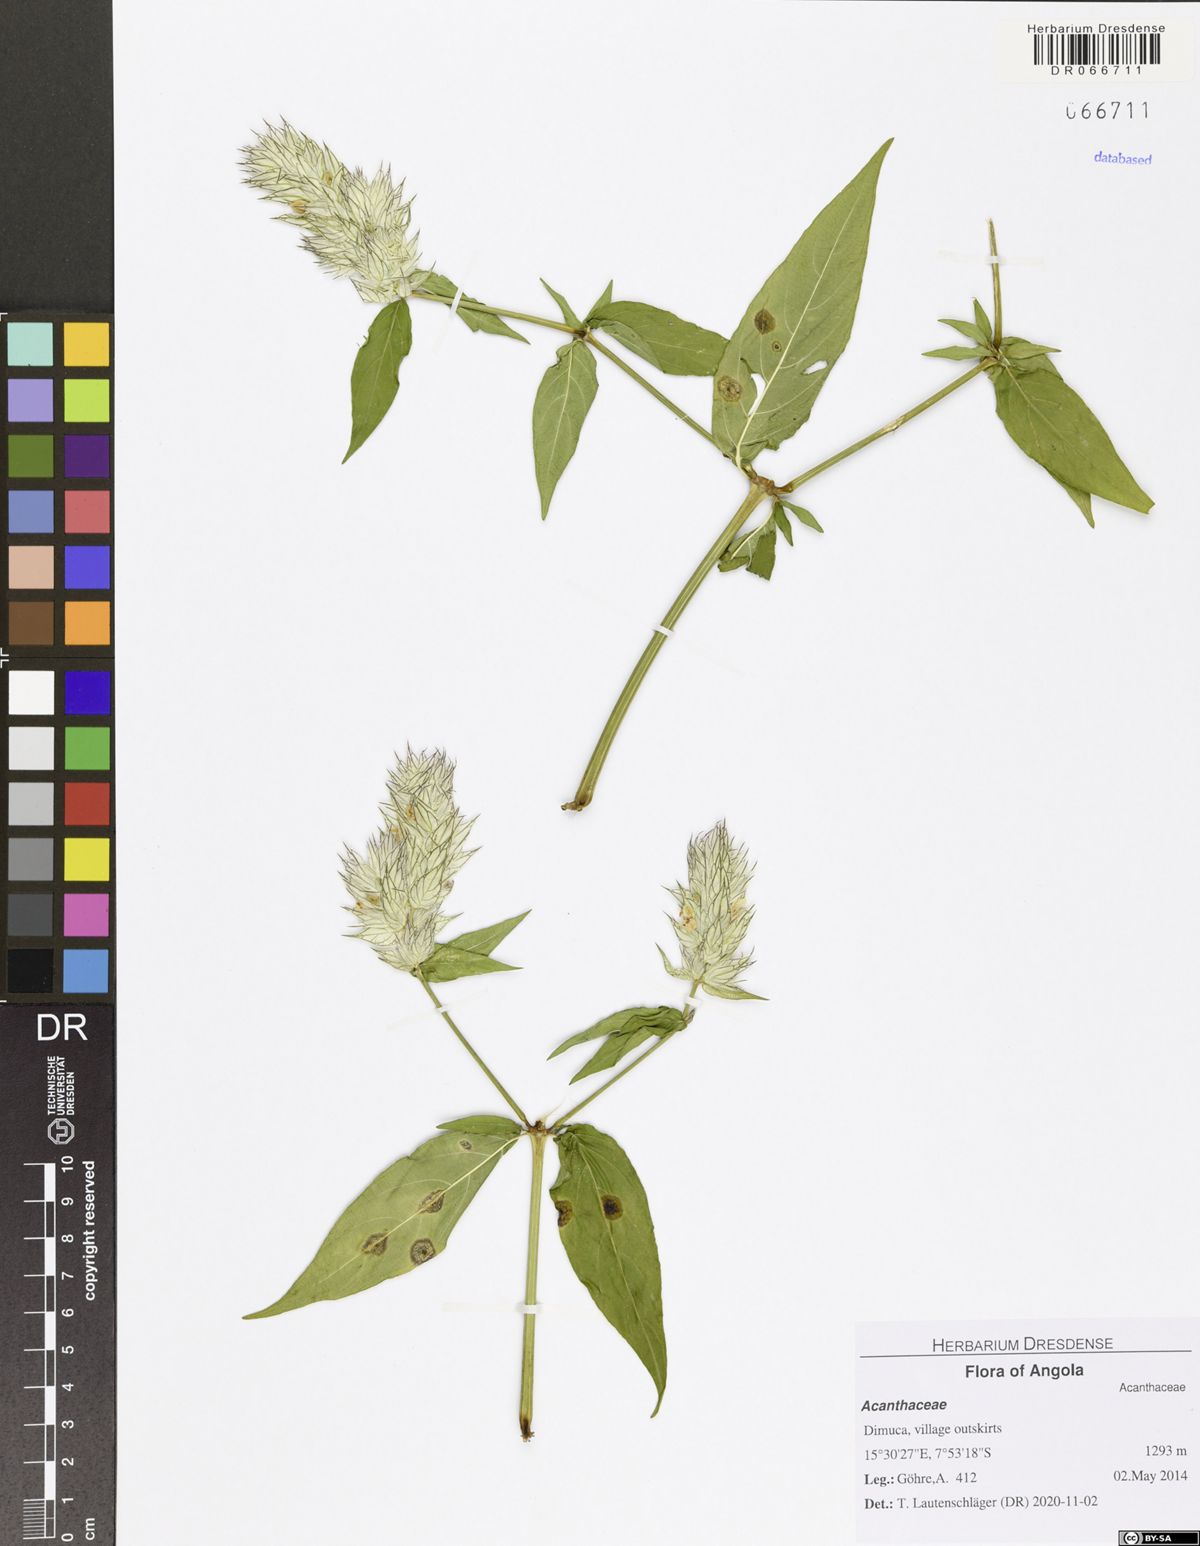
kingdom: Plantae
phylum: Tracheophyta
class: Magnoliopsida
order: Lamiales
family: Acanthaceae
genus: Nicoteba
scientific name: Nicoteba betonica
